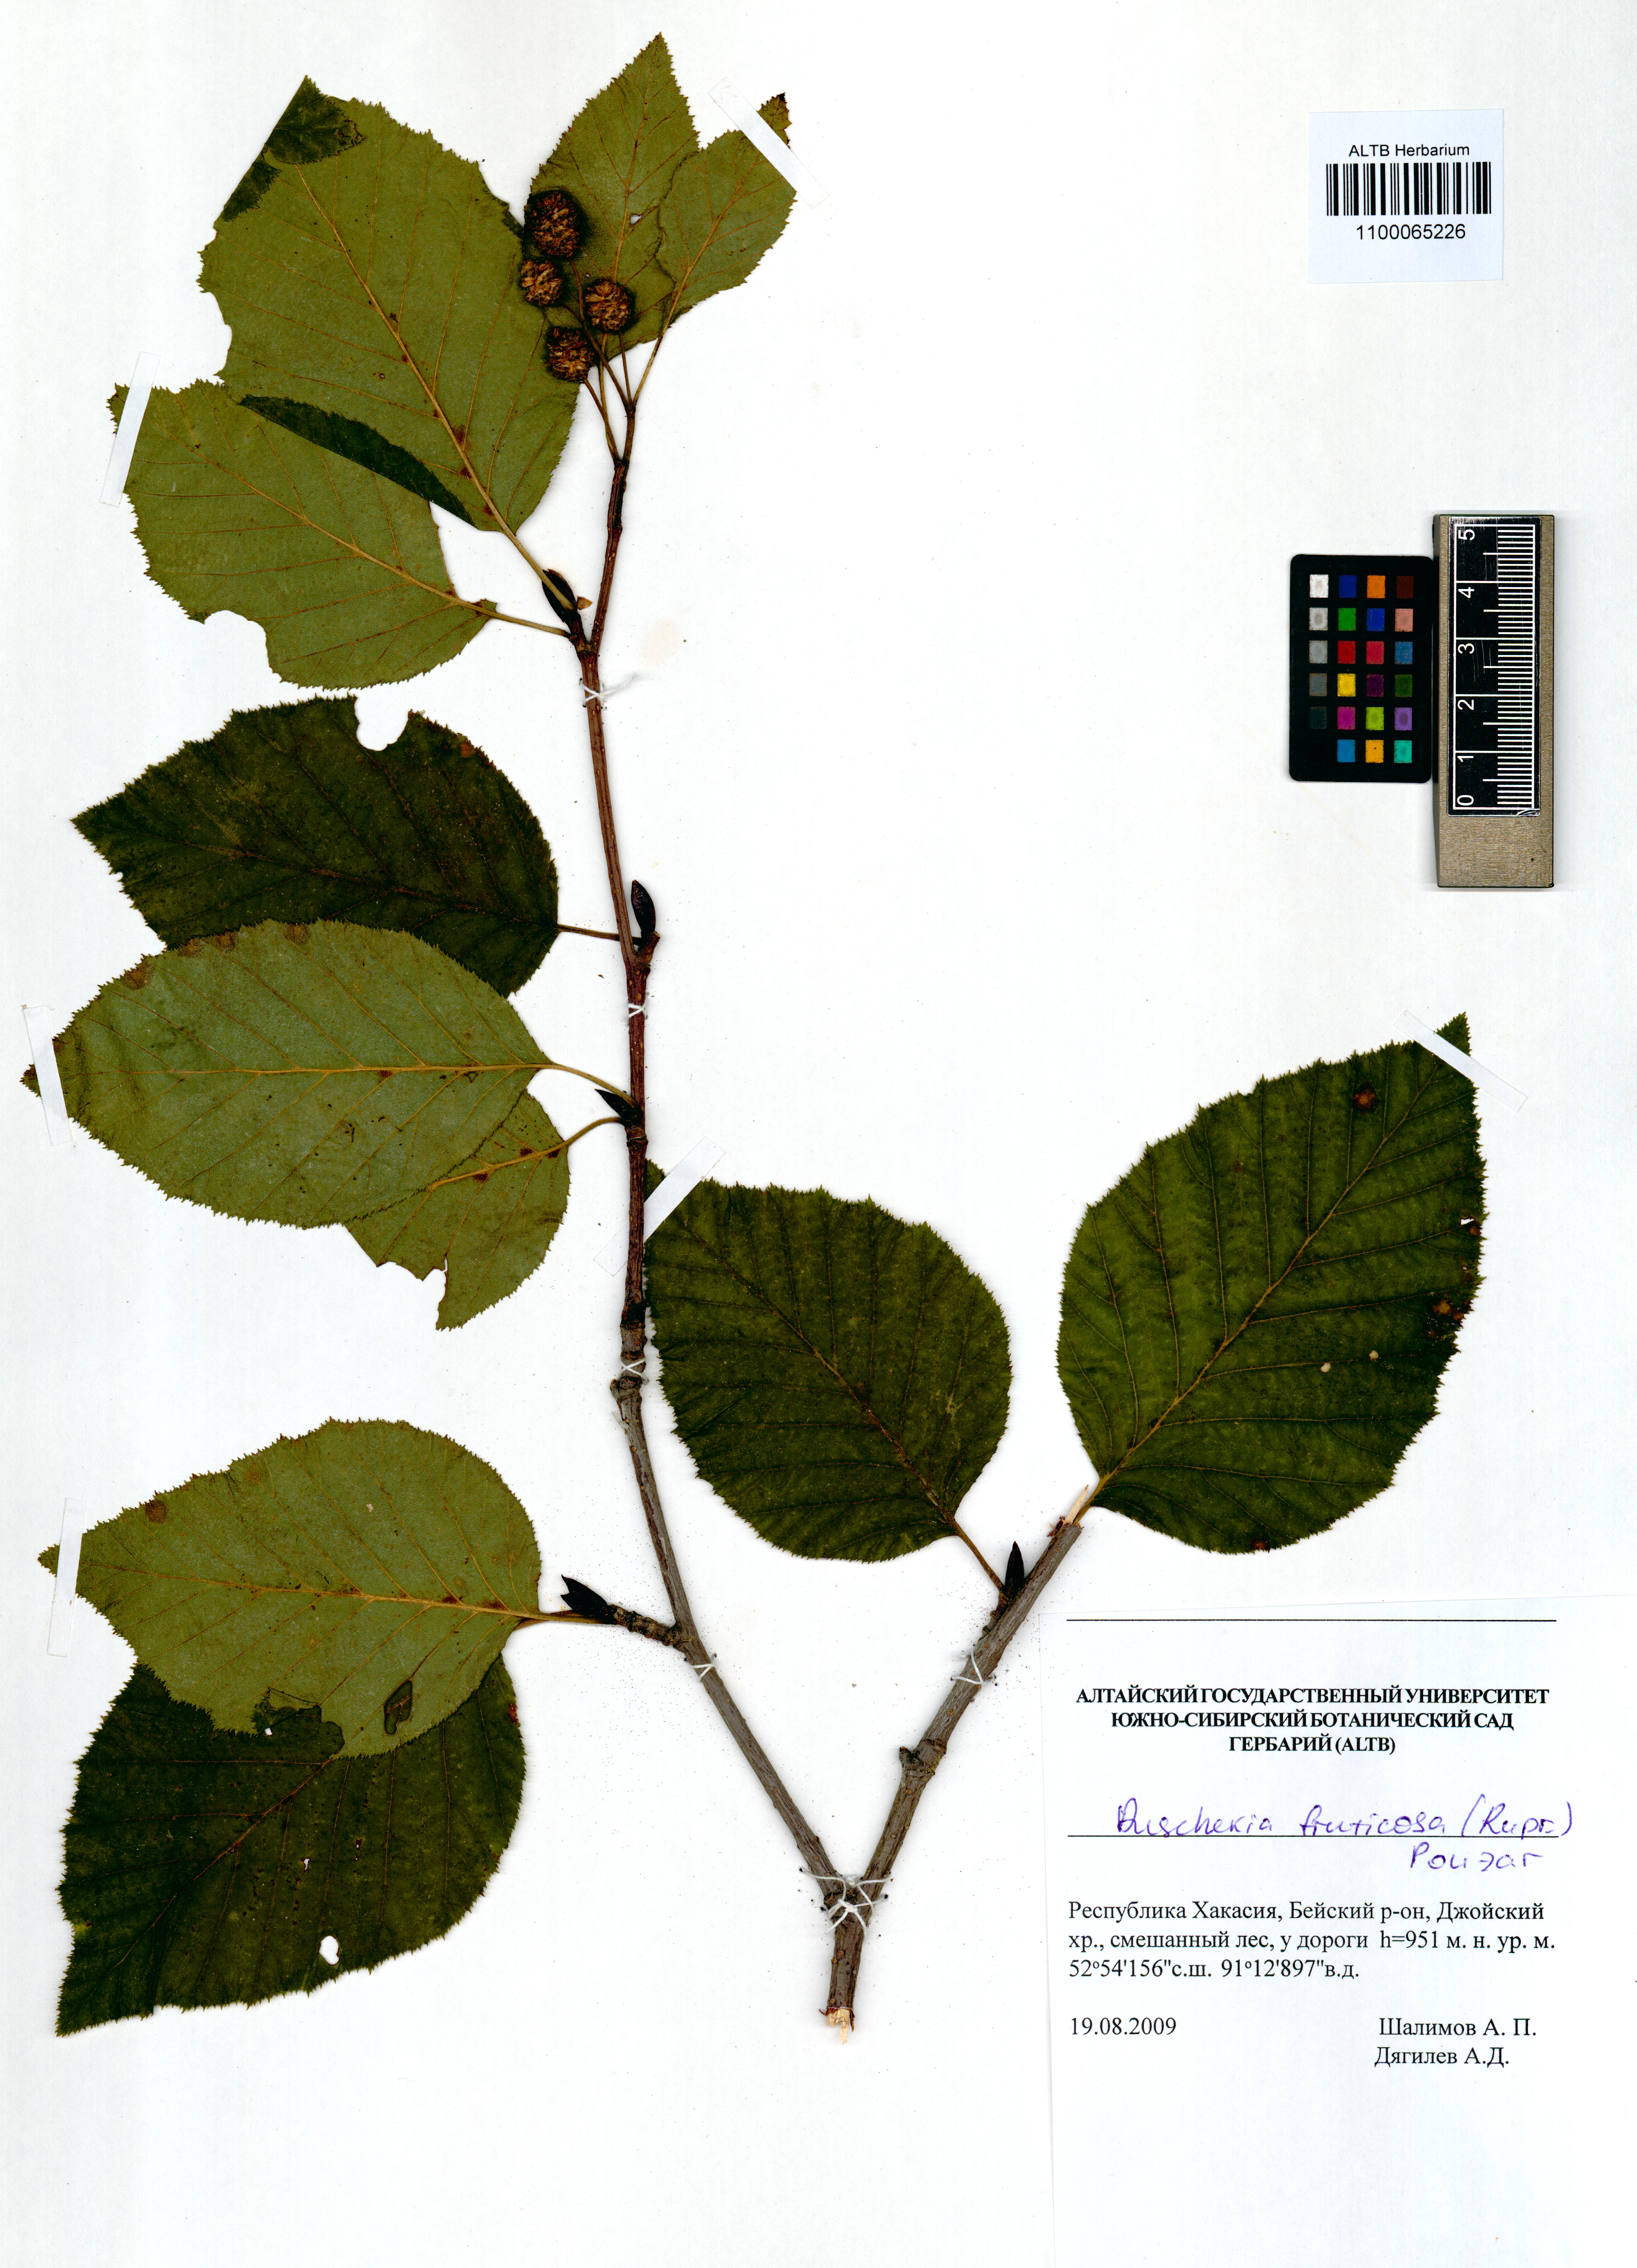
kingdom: Plantae
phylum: Tracheophyta
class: Magnoliopsida
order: Fagales
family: Betulaceae
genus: Alnus
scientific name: Alnus alnobetula
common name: Green alder
